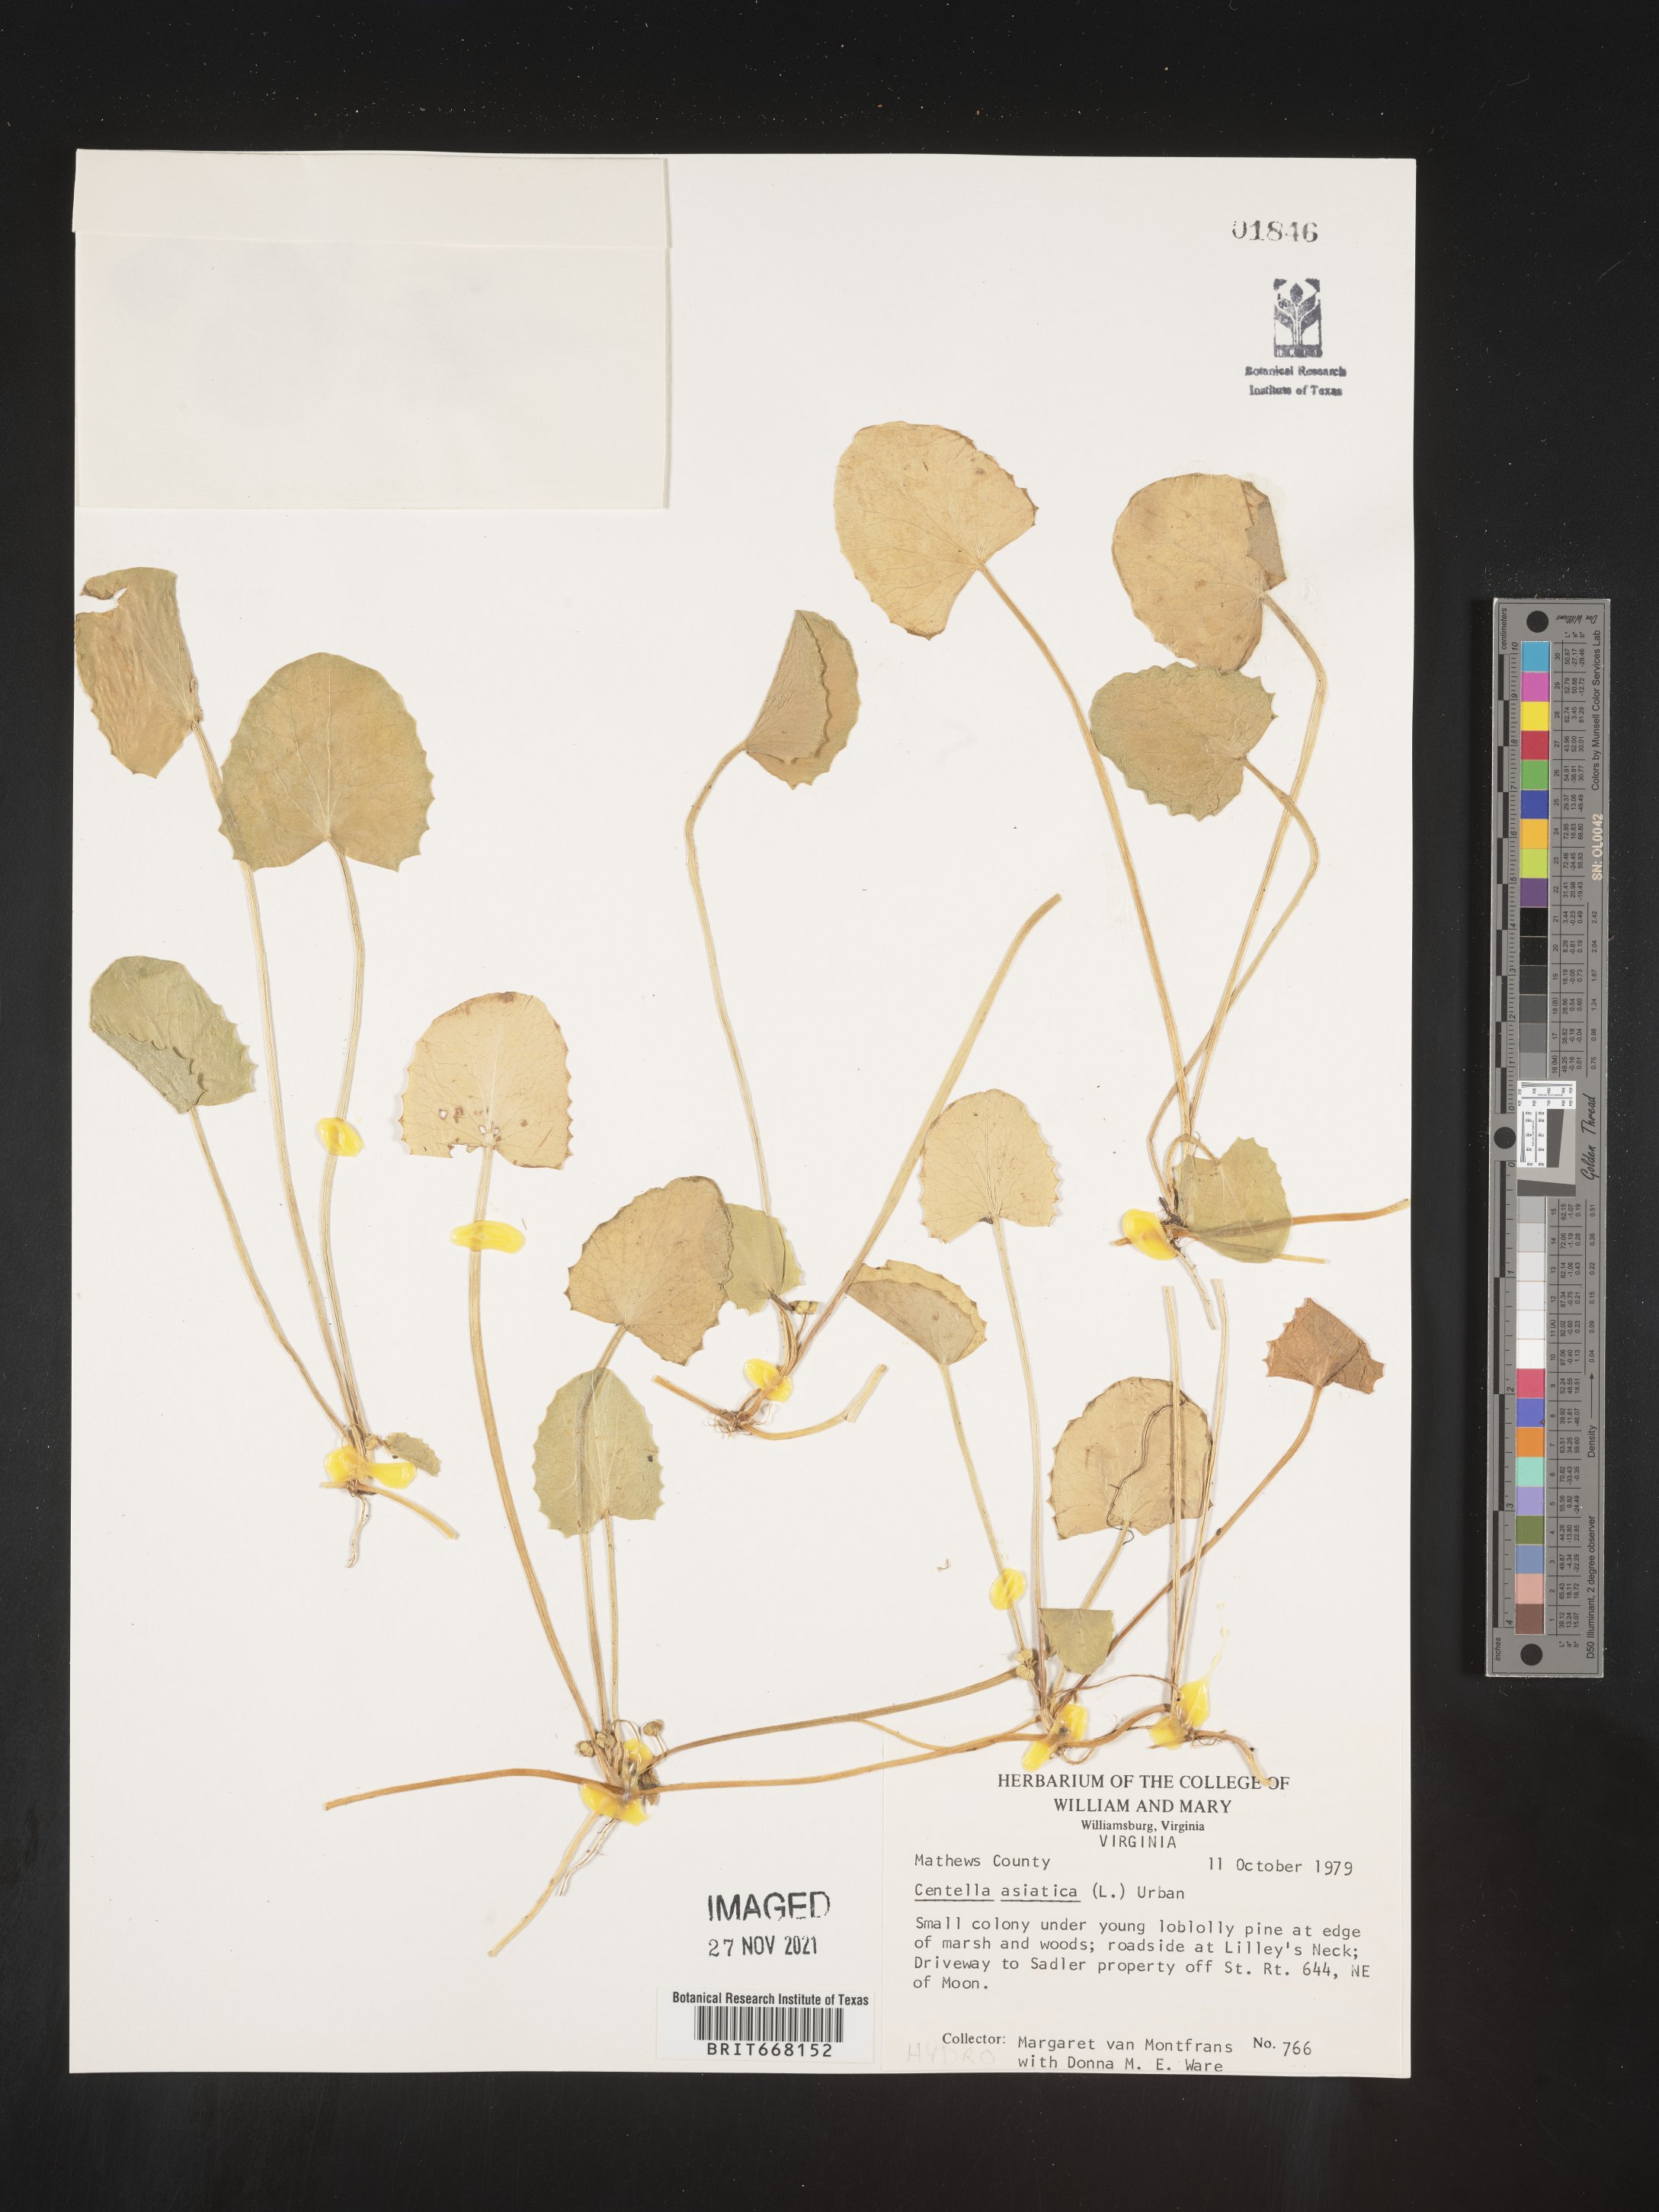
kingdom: Plantae
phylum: Tracheophyta
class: Magnoliopsida
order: Apiales
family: Apiaceae
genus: Centella
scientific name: Centella
